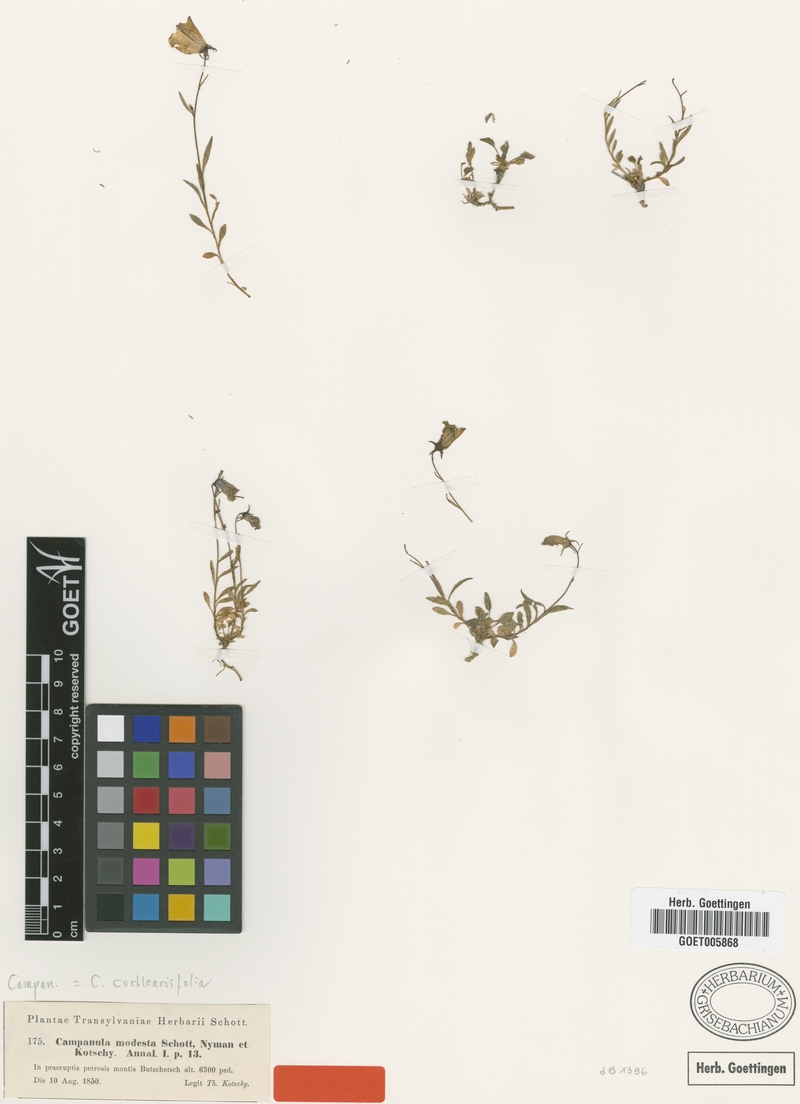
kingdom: Plantae
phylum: Tracheophyta
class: Magnoliopsida
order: Asterales
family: Campanulaceae
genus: Campanula
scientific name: Campanula cochleariifolia
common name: Fairies'-thimbles
